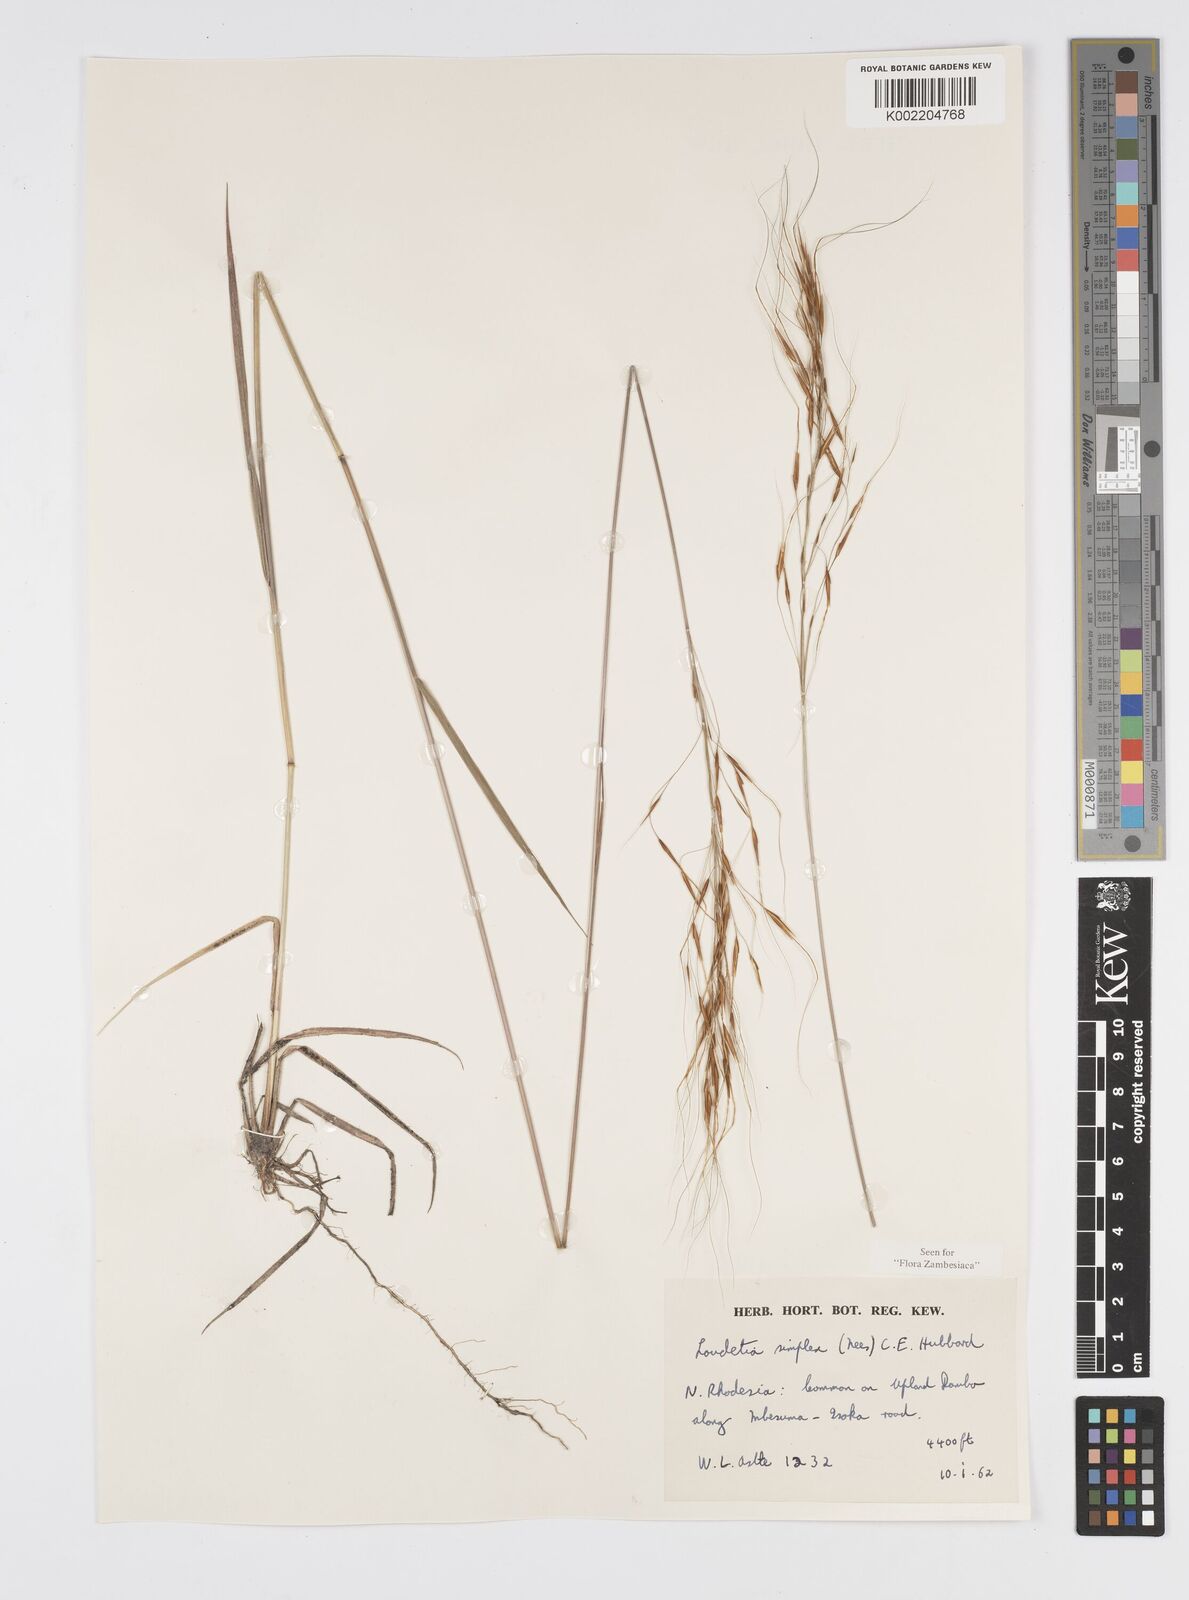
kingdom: Plantae
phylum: Tracheophyta
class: Liliopsida
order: Poales
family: Poaceae
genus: Loudetia
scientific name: Loudetia simplex
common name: Common russet grass
